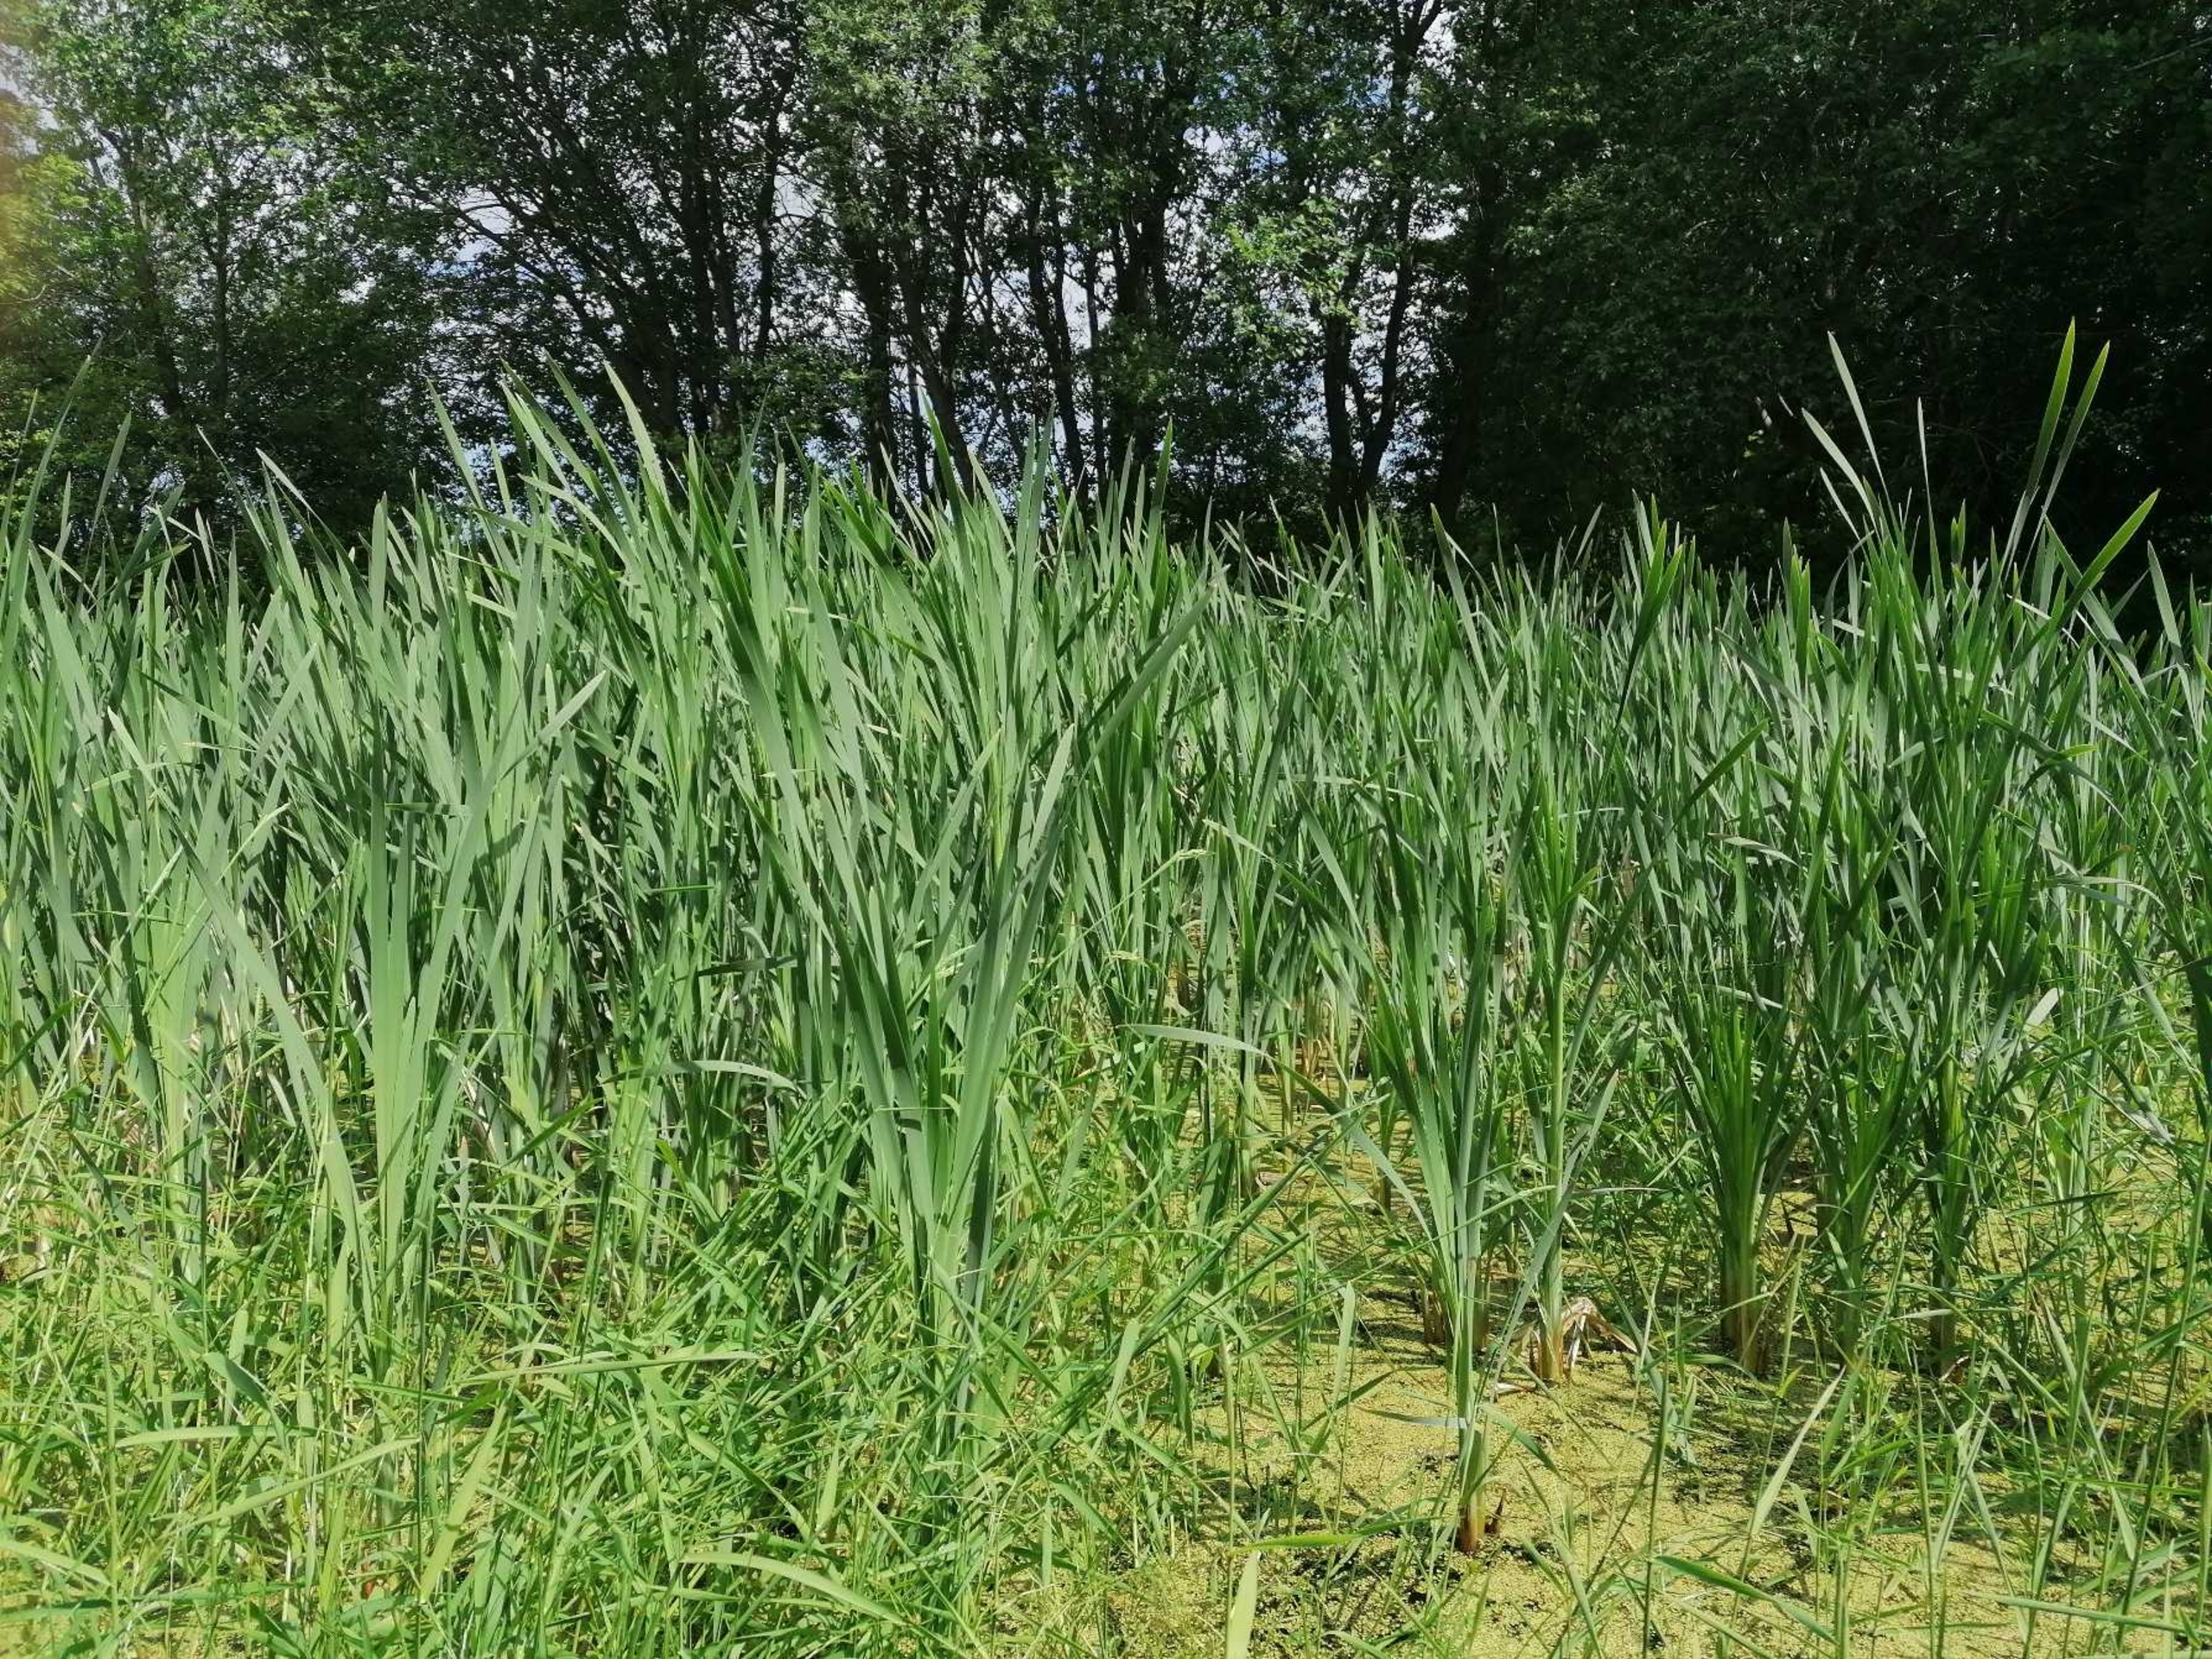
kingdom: Plantae
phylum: Tracheophyta
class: Liliopsida
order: Poales
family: Typhaceae
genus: Typha
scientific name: Typha latifolia
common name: Bredbladet dunhammer
